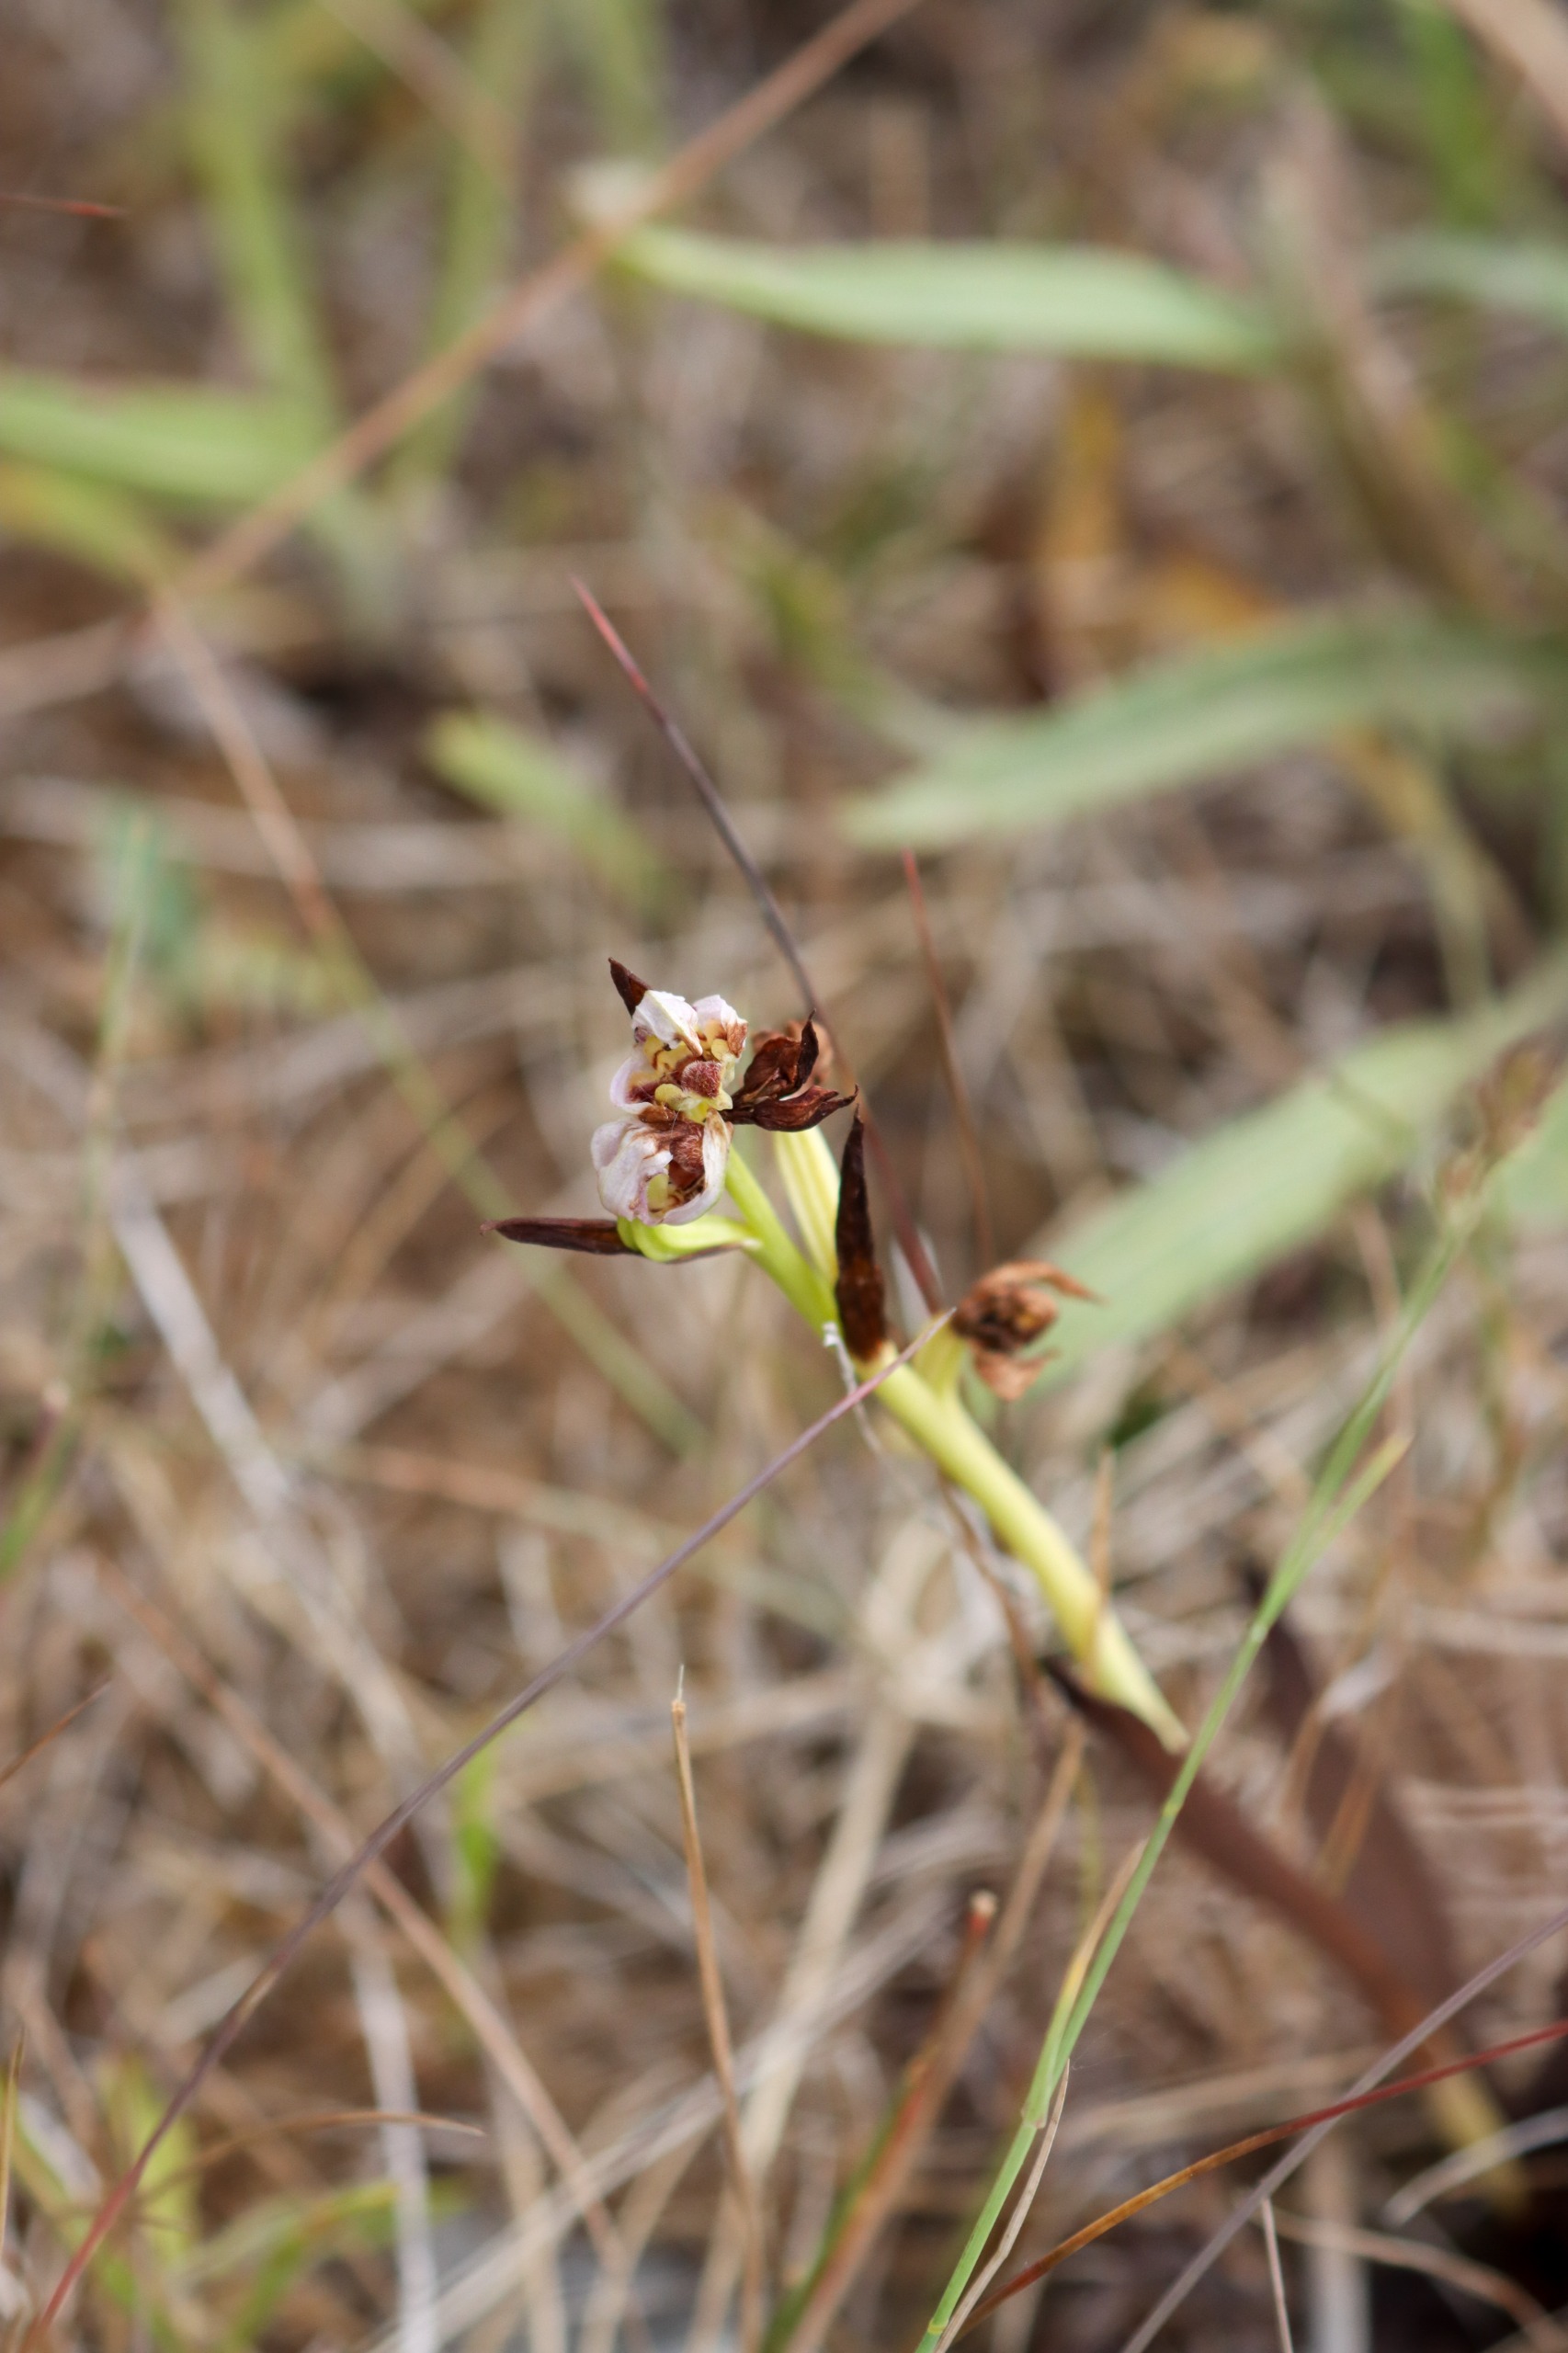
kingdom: Plantae
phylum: Tracheophyta
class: Liliopsida
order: Asparagales
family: Orchidaceae
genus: Ophrys
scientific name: Ophrys apifera
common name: Biblomst
